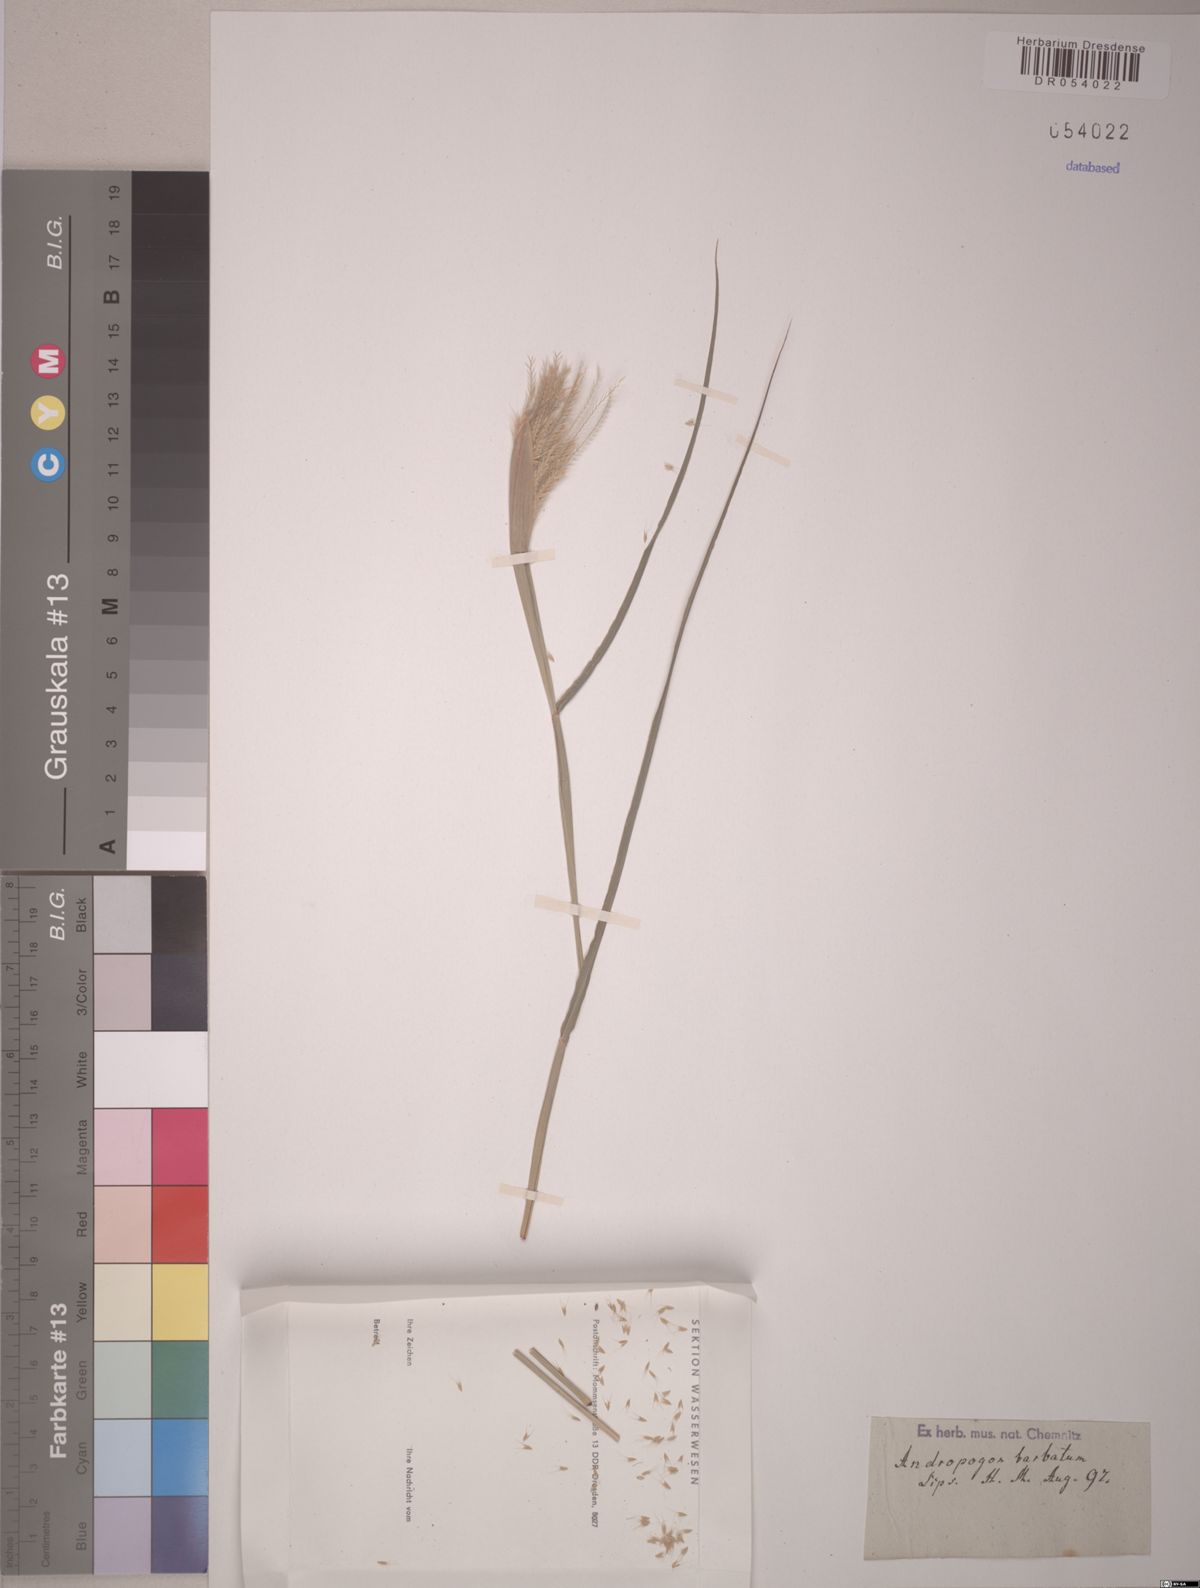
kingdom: Plantae
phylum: Tracheophyta
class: Liliopsida
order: Poales
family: Poaceae
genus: Andropogon
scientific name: Andropogon
